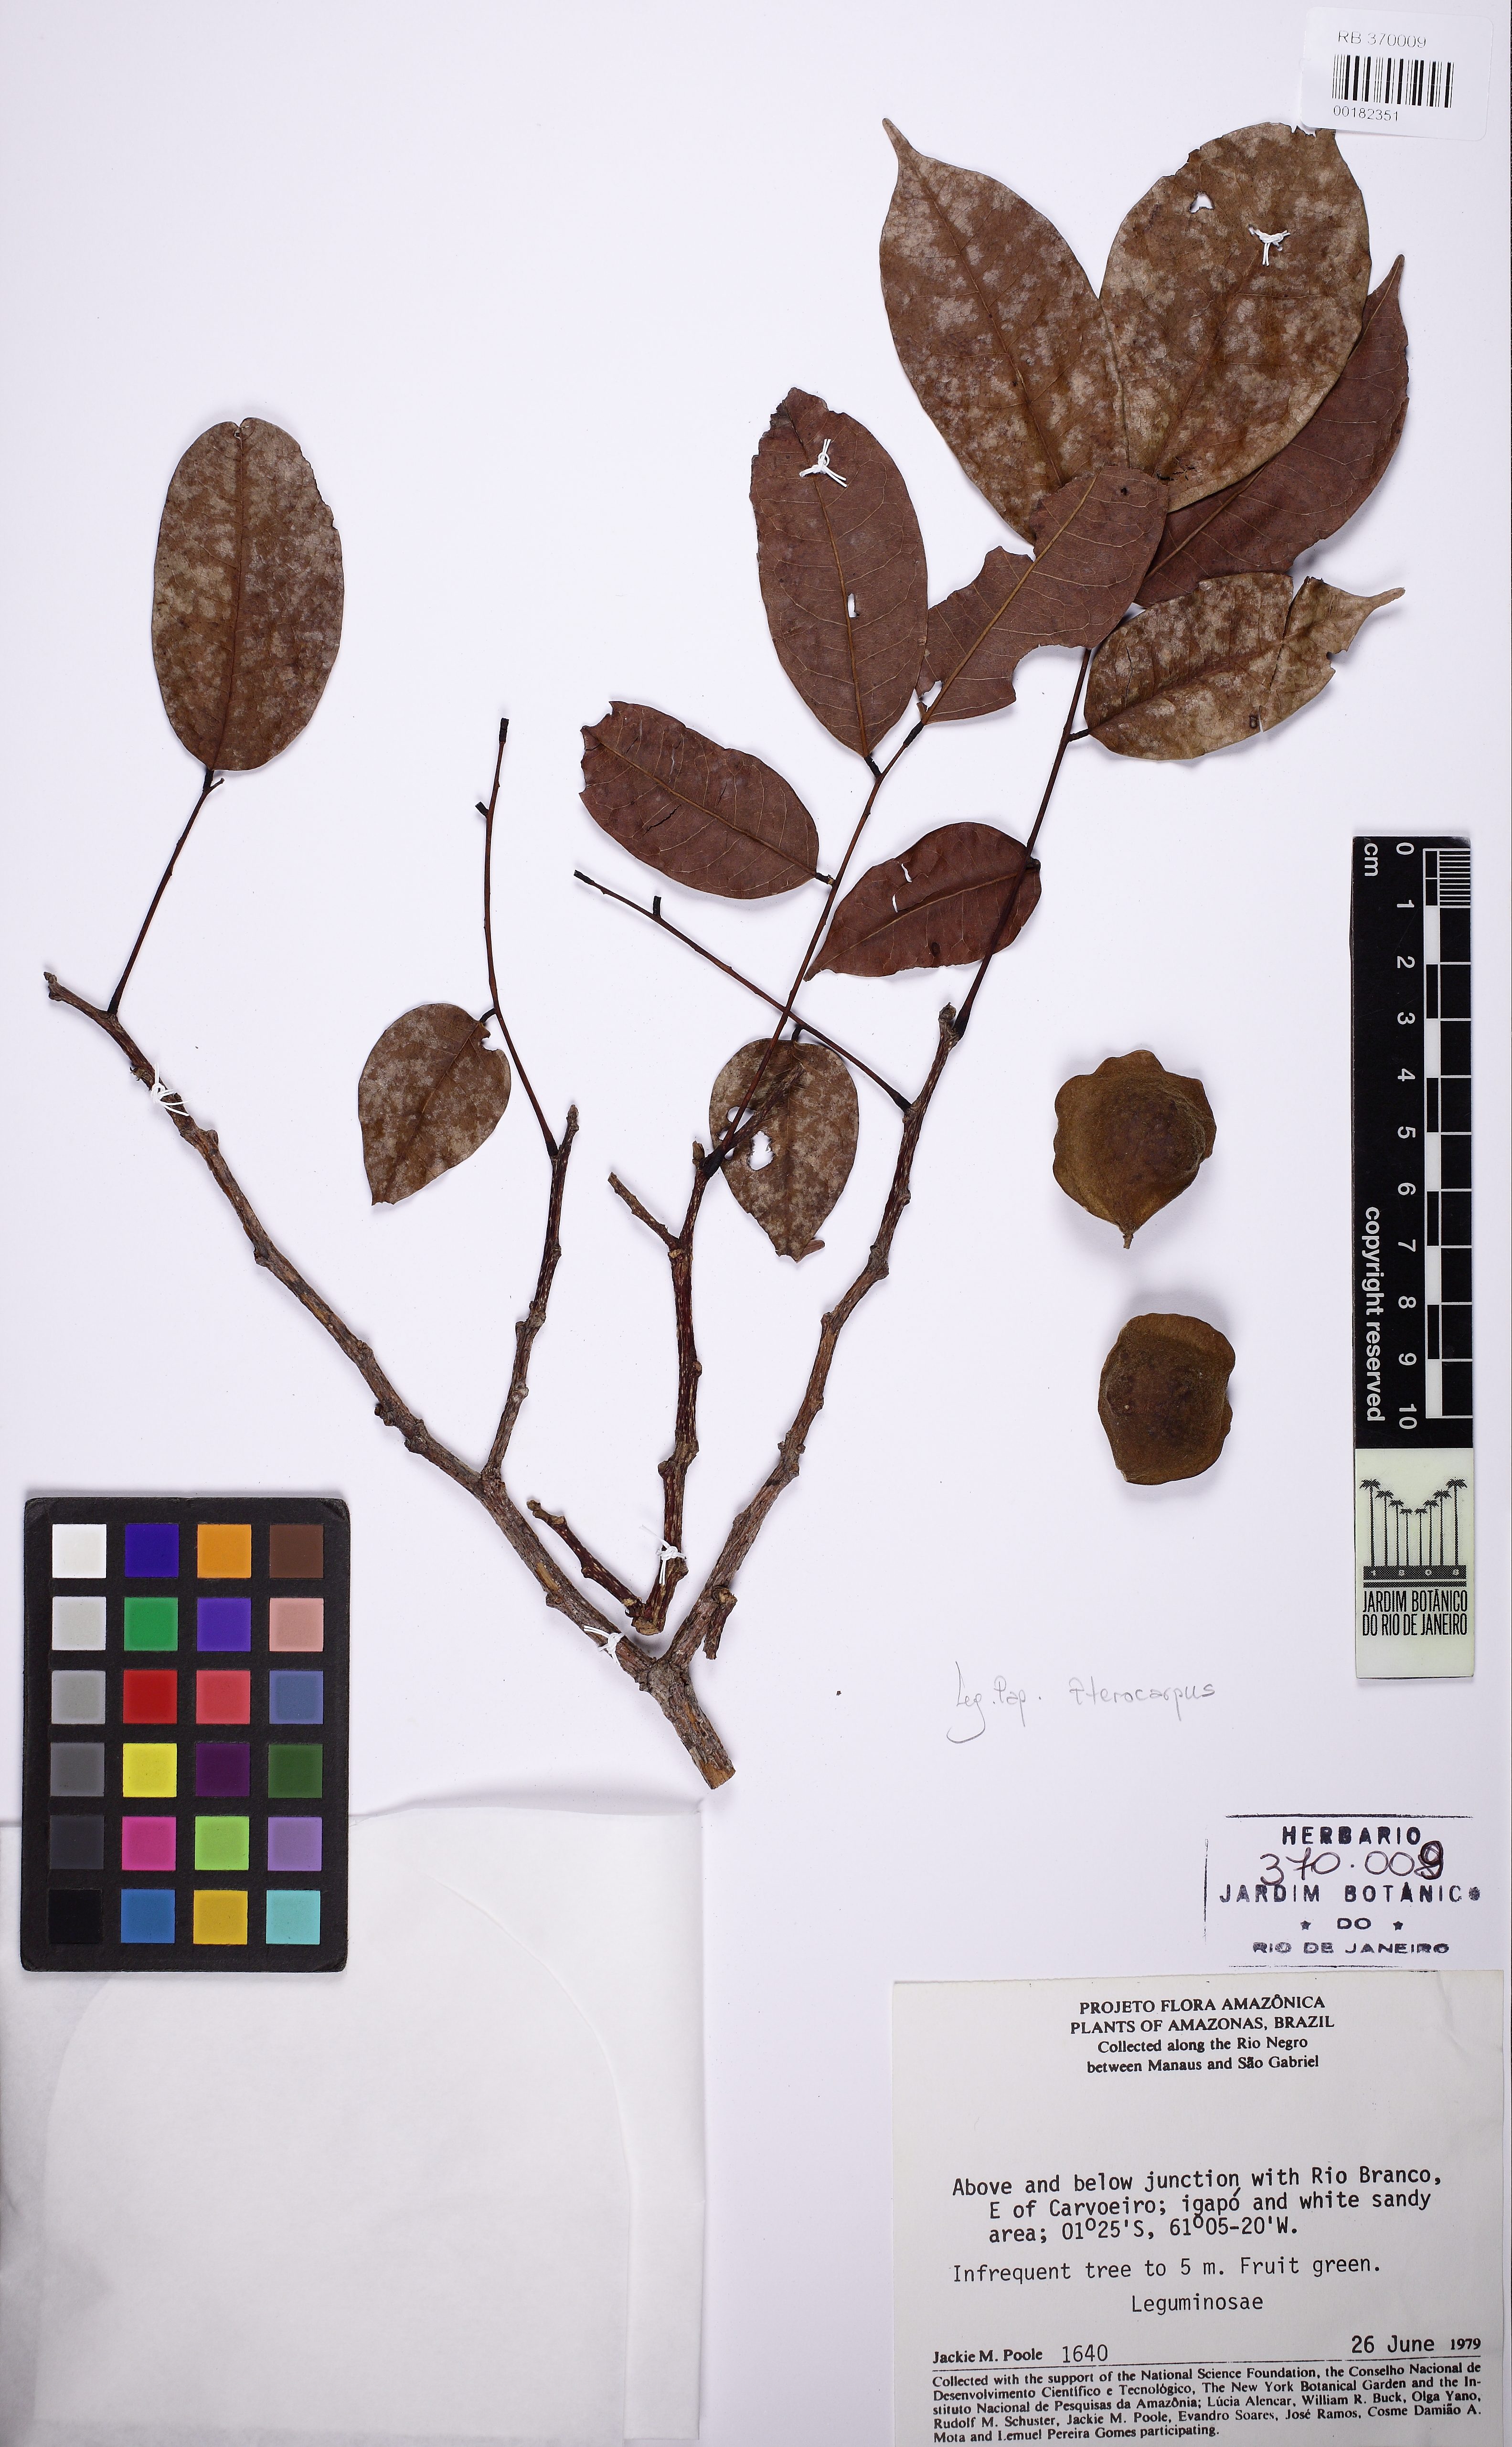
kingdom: Plantae
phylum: Tracheophyta
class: Magnoliopsida
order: Fabales
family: Fabaceae
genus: Pterocarpus
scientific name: Pterocarpus santalinoides
